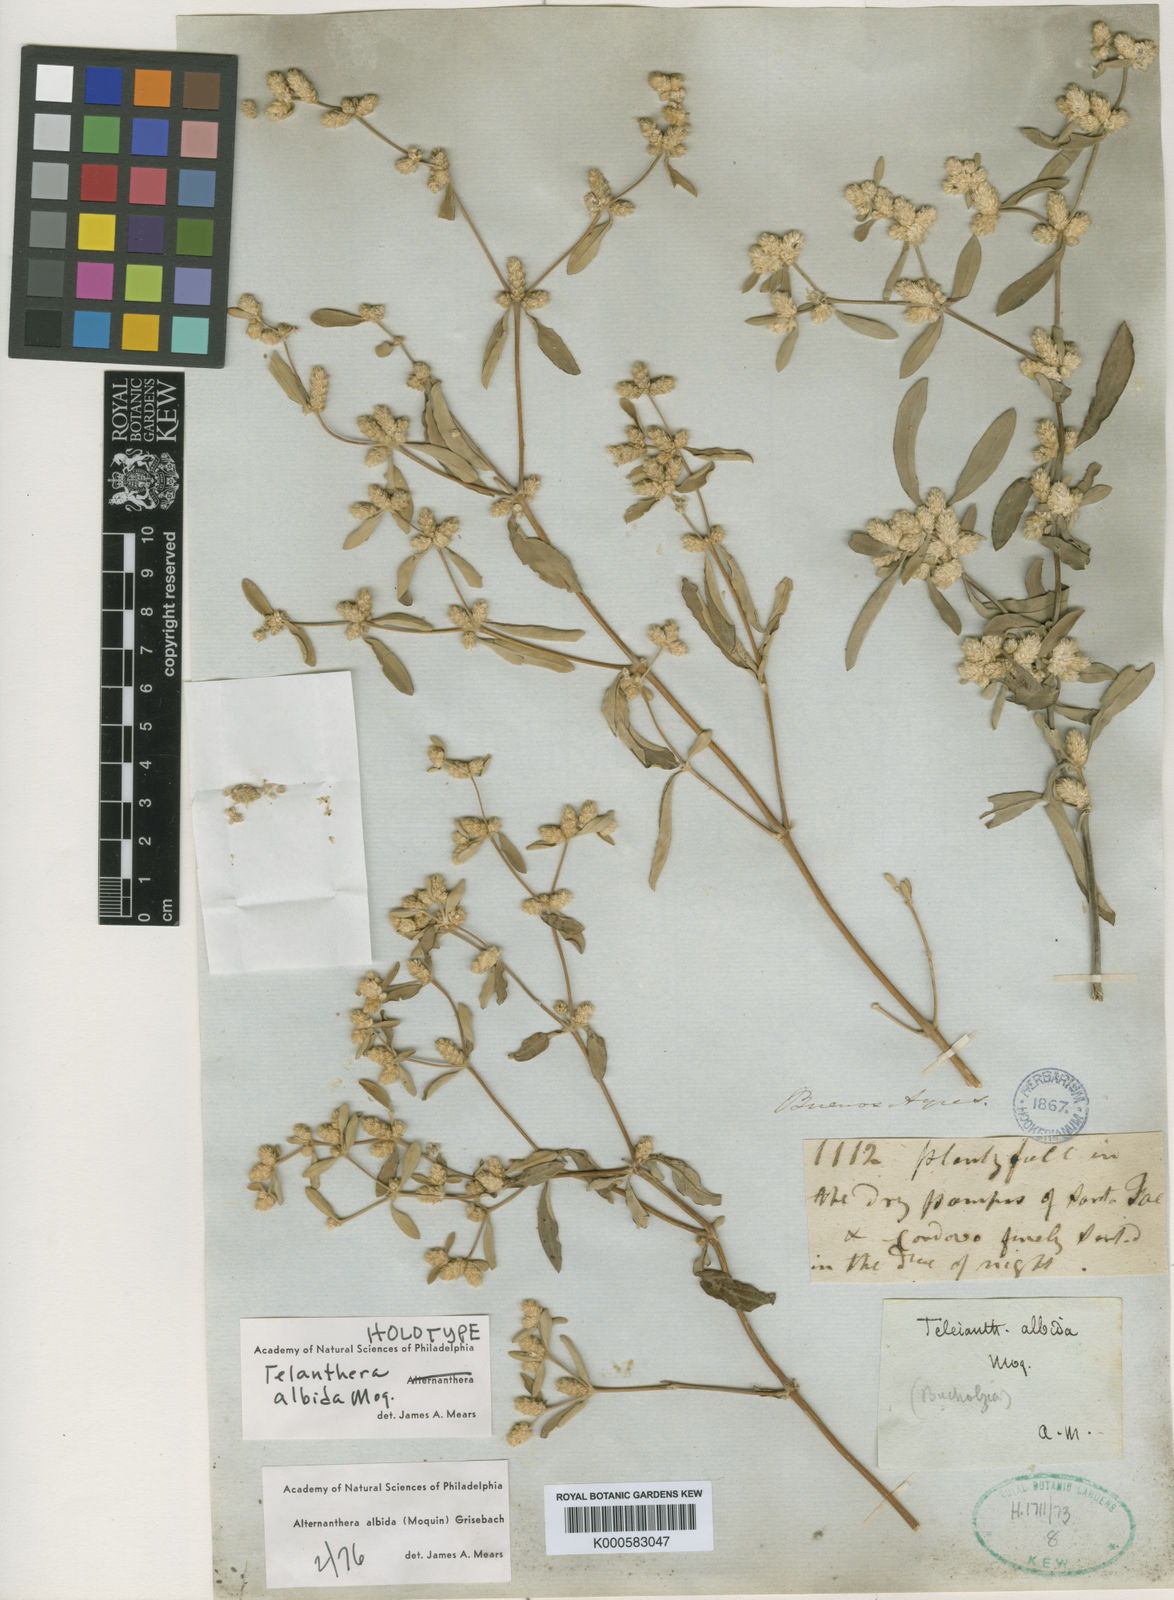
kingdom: Plantae
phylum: Tracheophyta
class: Magnoliopsida
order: Caryophyllales
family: Amaranthaceae
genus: Alternanthera
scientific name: Alternanthera albida
